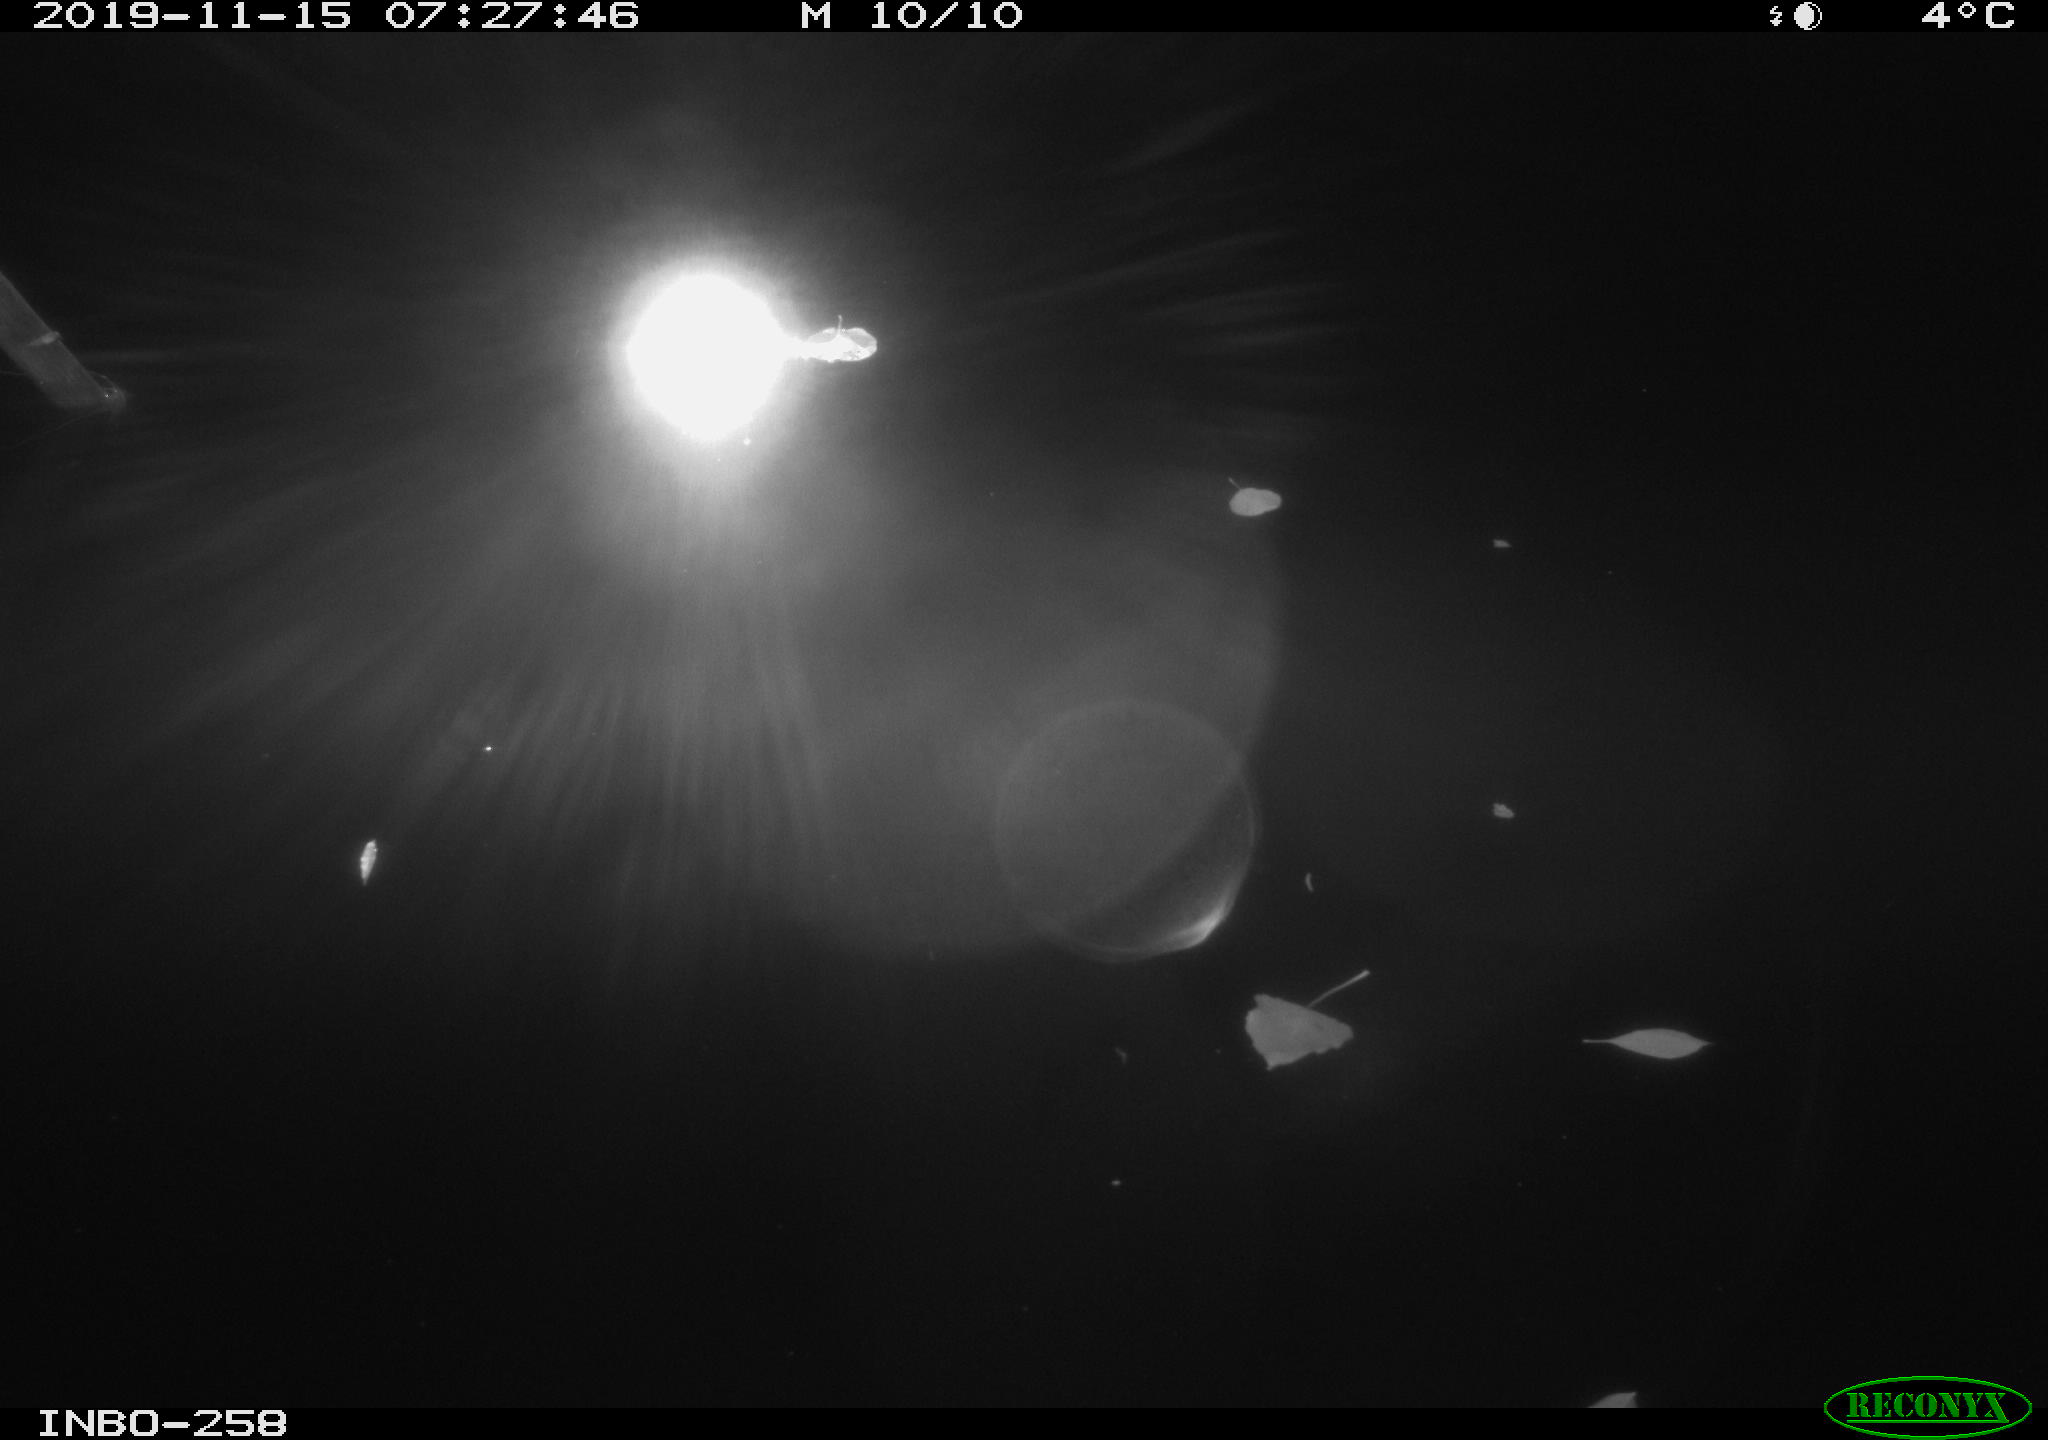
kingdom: Animalia
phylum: Chordata
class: Aves
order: Anseriformes
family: Anatidae
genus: Anas
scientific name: Anas platyrhynchos
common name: Mallard
